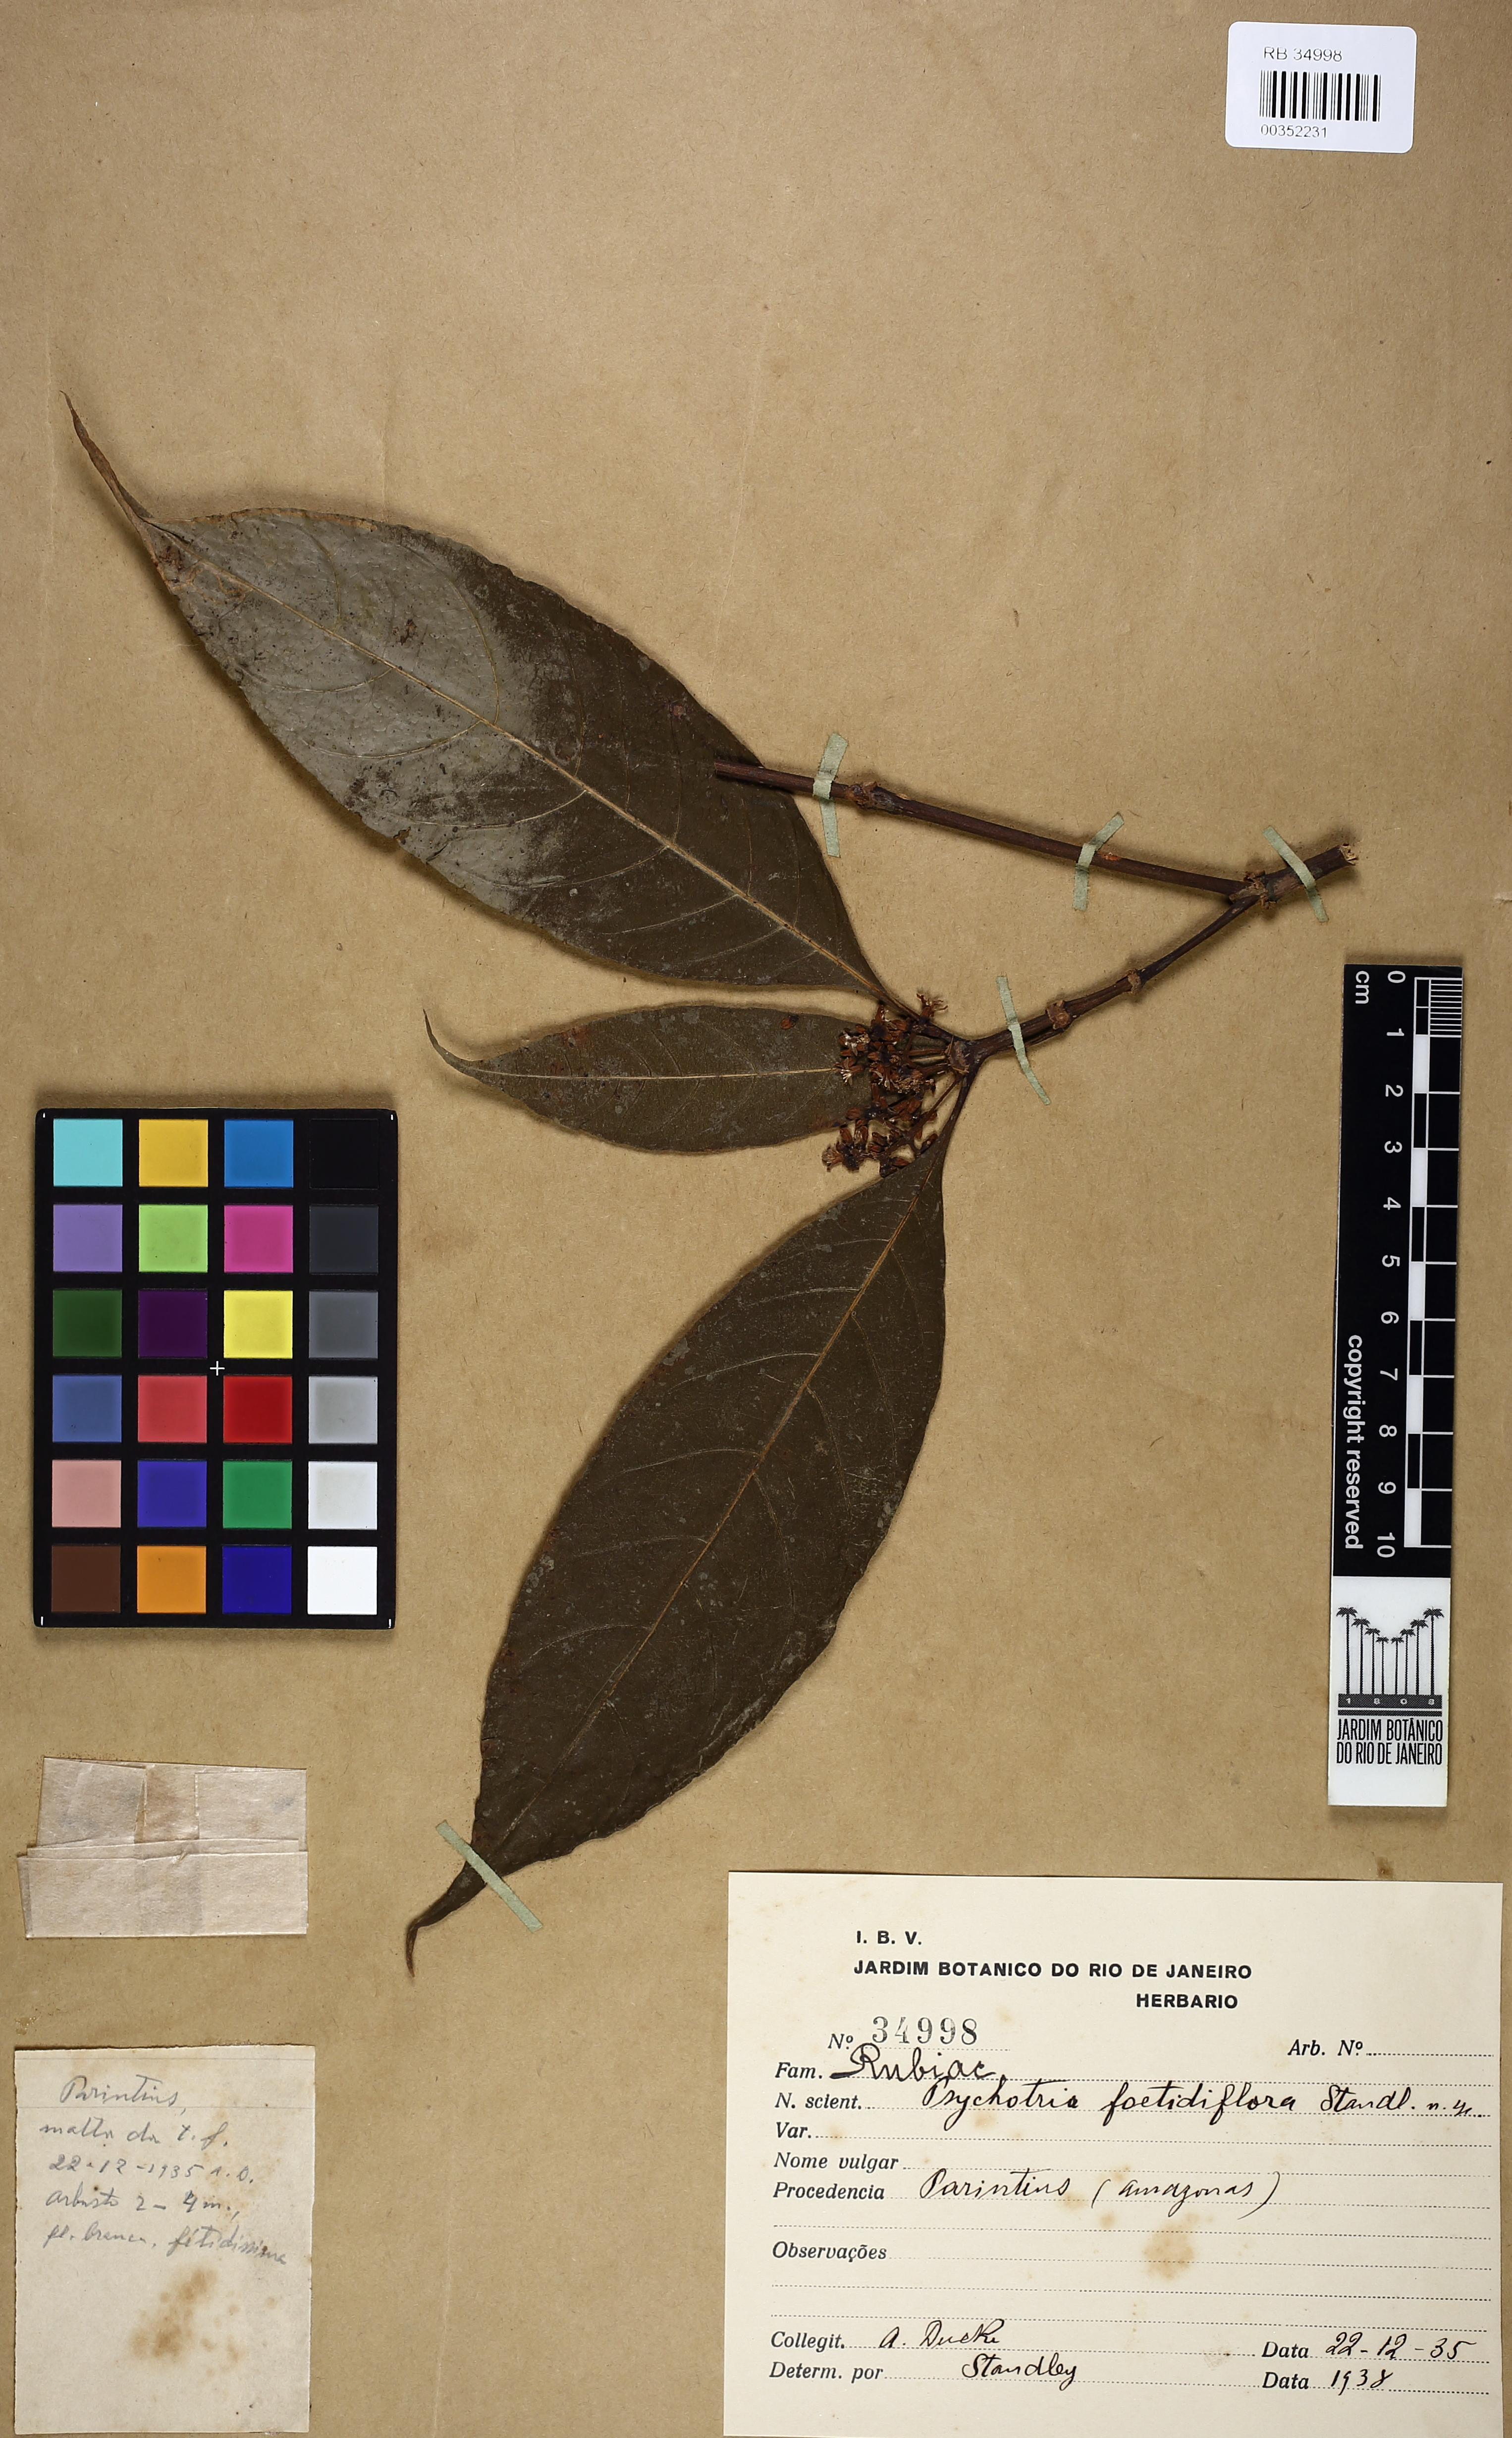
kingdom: Plantae
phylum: Tracheophyta
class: Magnoliopsida
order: Gentianales
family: Rubiaceae
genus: Eumachia
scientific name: Eumachia boliviana
